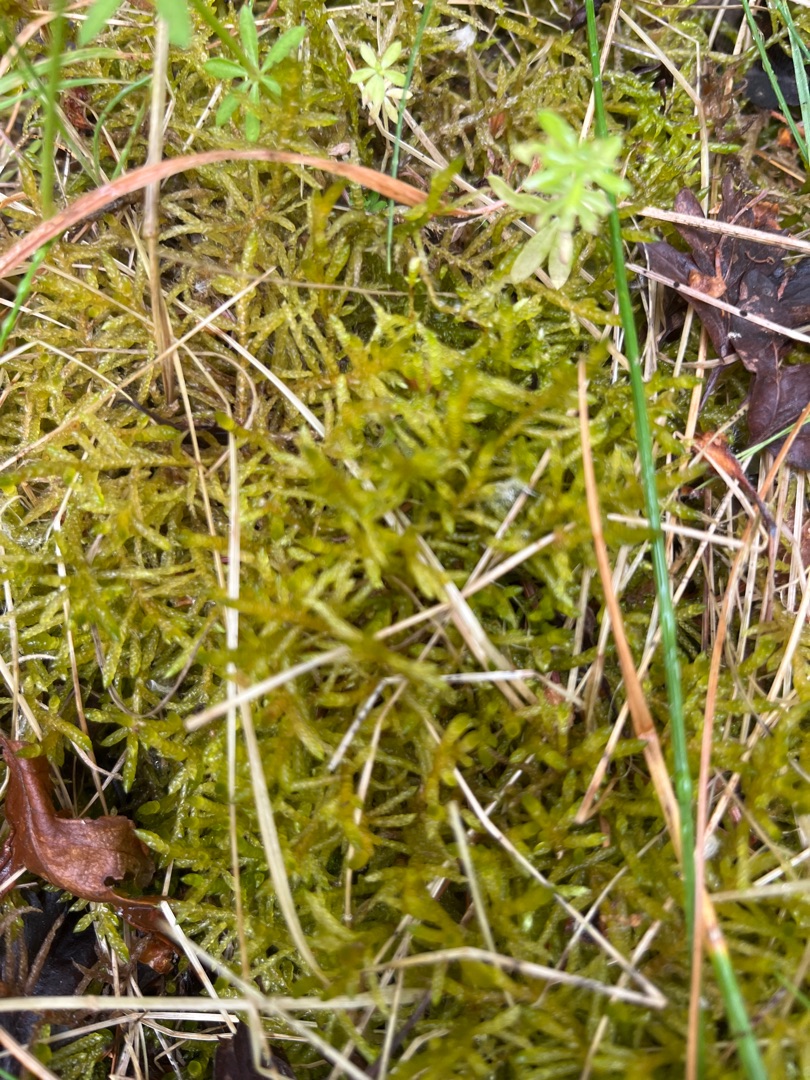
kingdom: Plantae
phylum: Bryophyta
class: Bryopsida
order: Hypnales
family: Brachytheciaceae
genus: Pseudoscleropodium
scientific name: Pseudoscleropodium purum
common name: Hulbladet fedtmos
